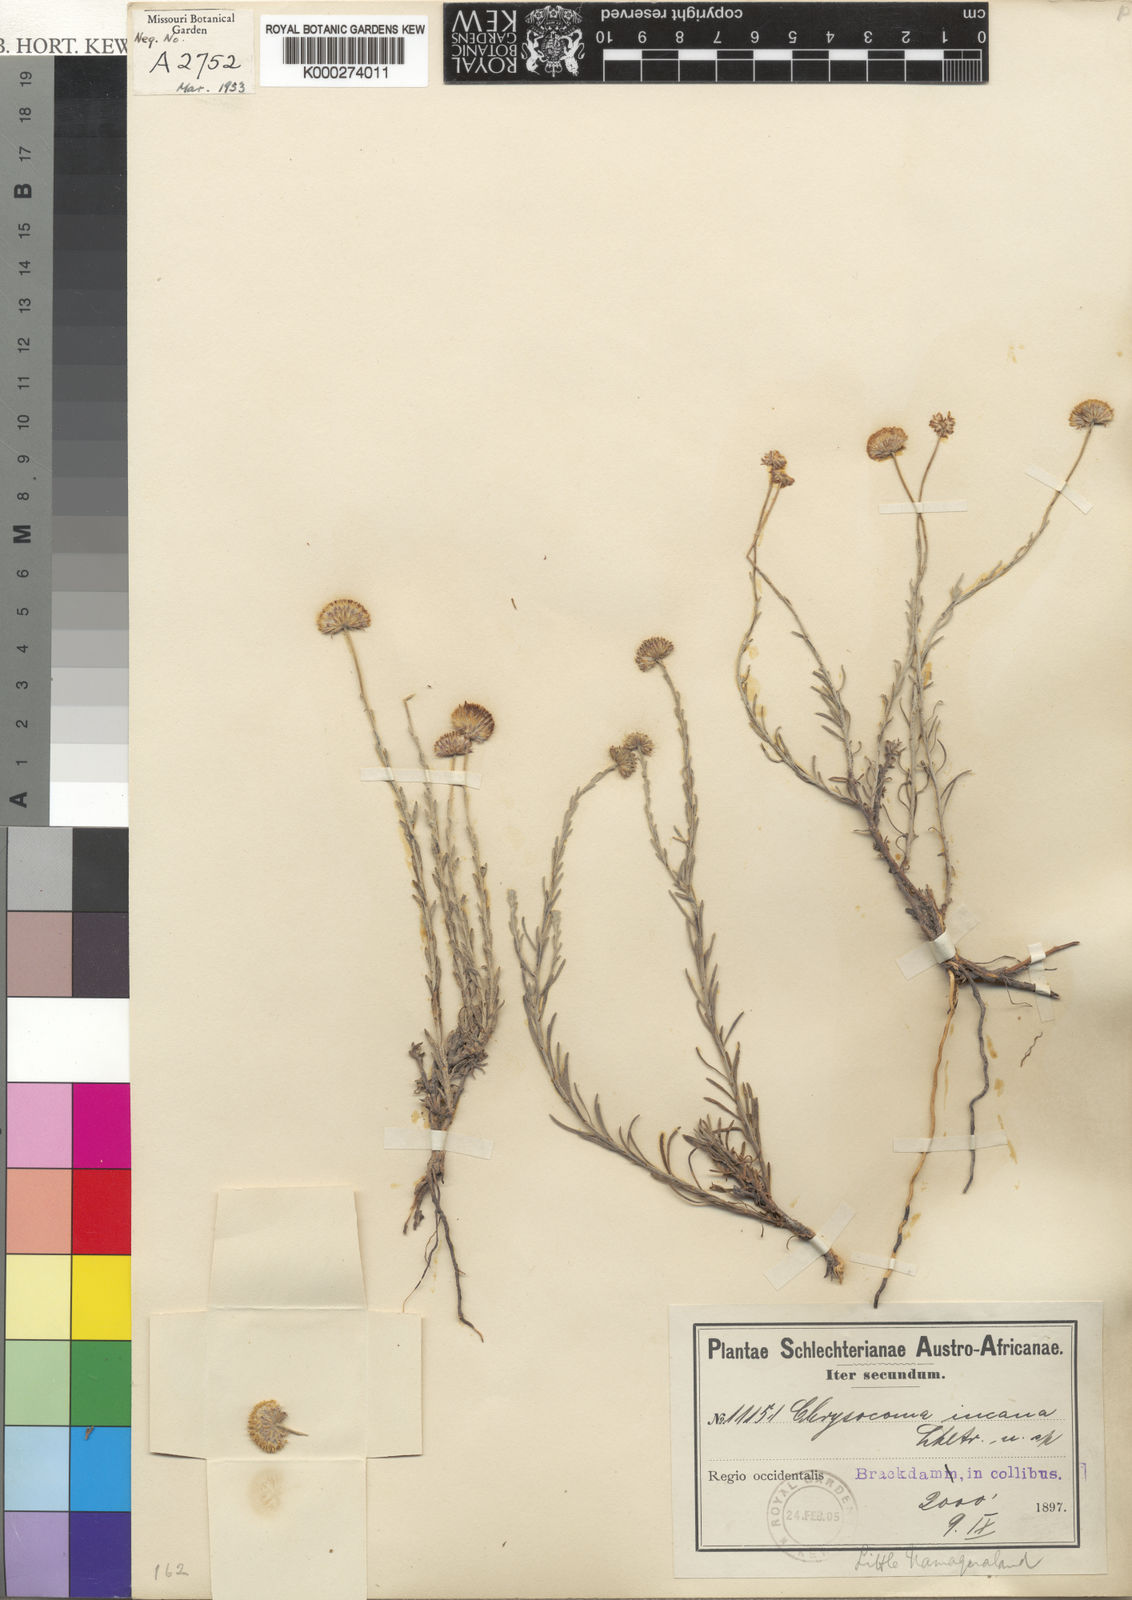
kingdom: Plantae
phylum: Tracheophyta
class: Magnoliopsida
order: Asterales
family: Asteraceae
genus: Chrysocoma
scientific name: Chrysocoma
